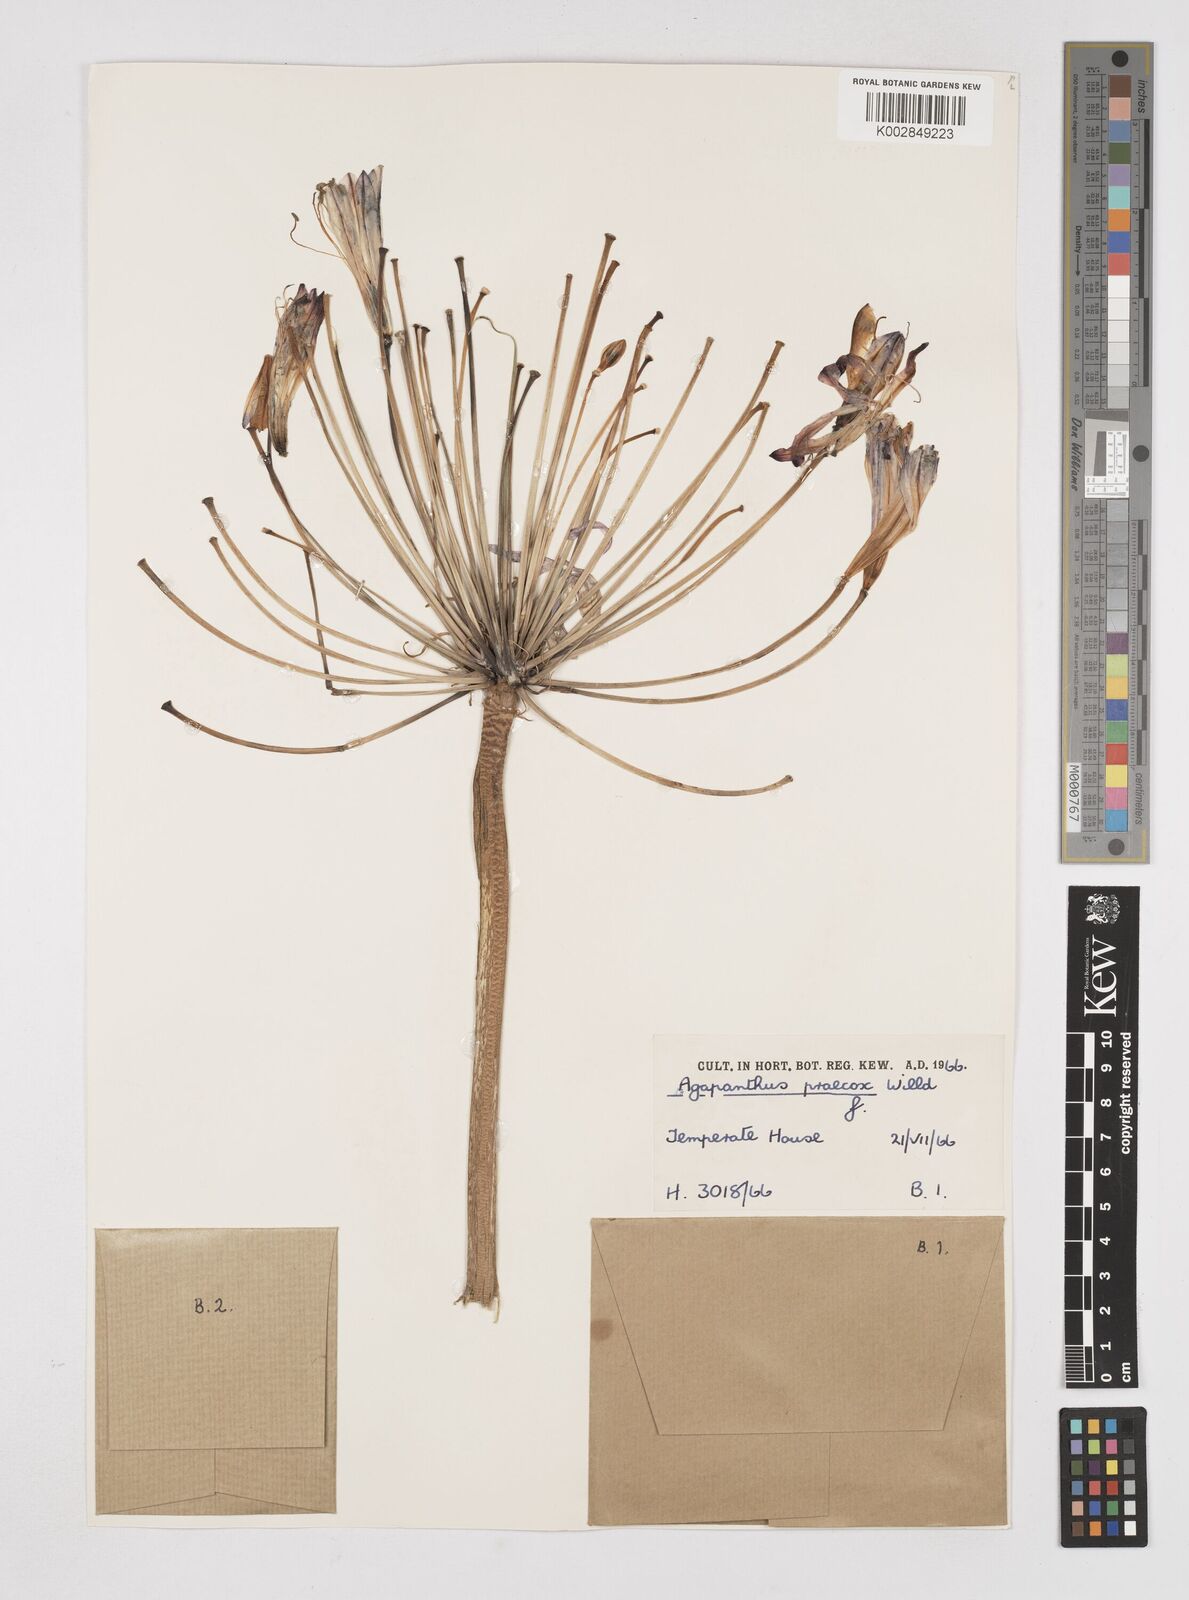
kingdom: Plantae
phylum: Tracheophyta
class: Liliopsida
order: Asparagales
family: Amaryllidaceae
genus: Agapanthus
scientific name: Agapanthus praecox
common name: African-lily
